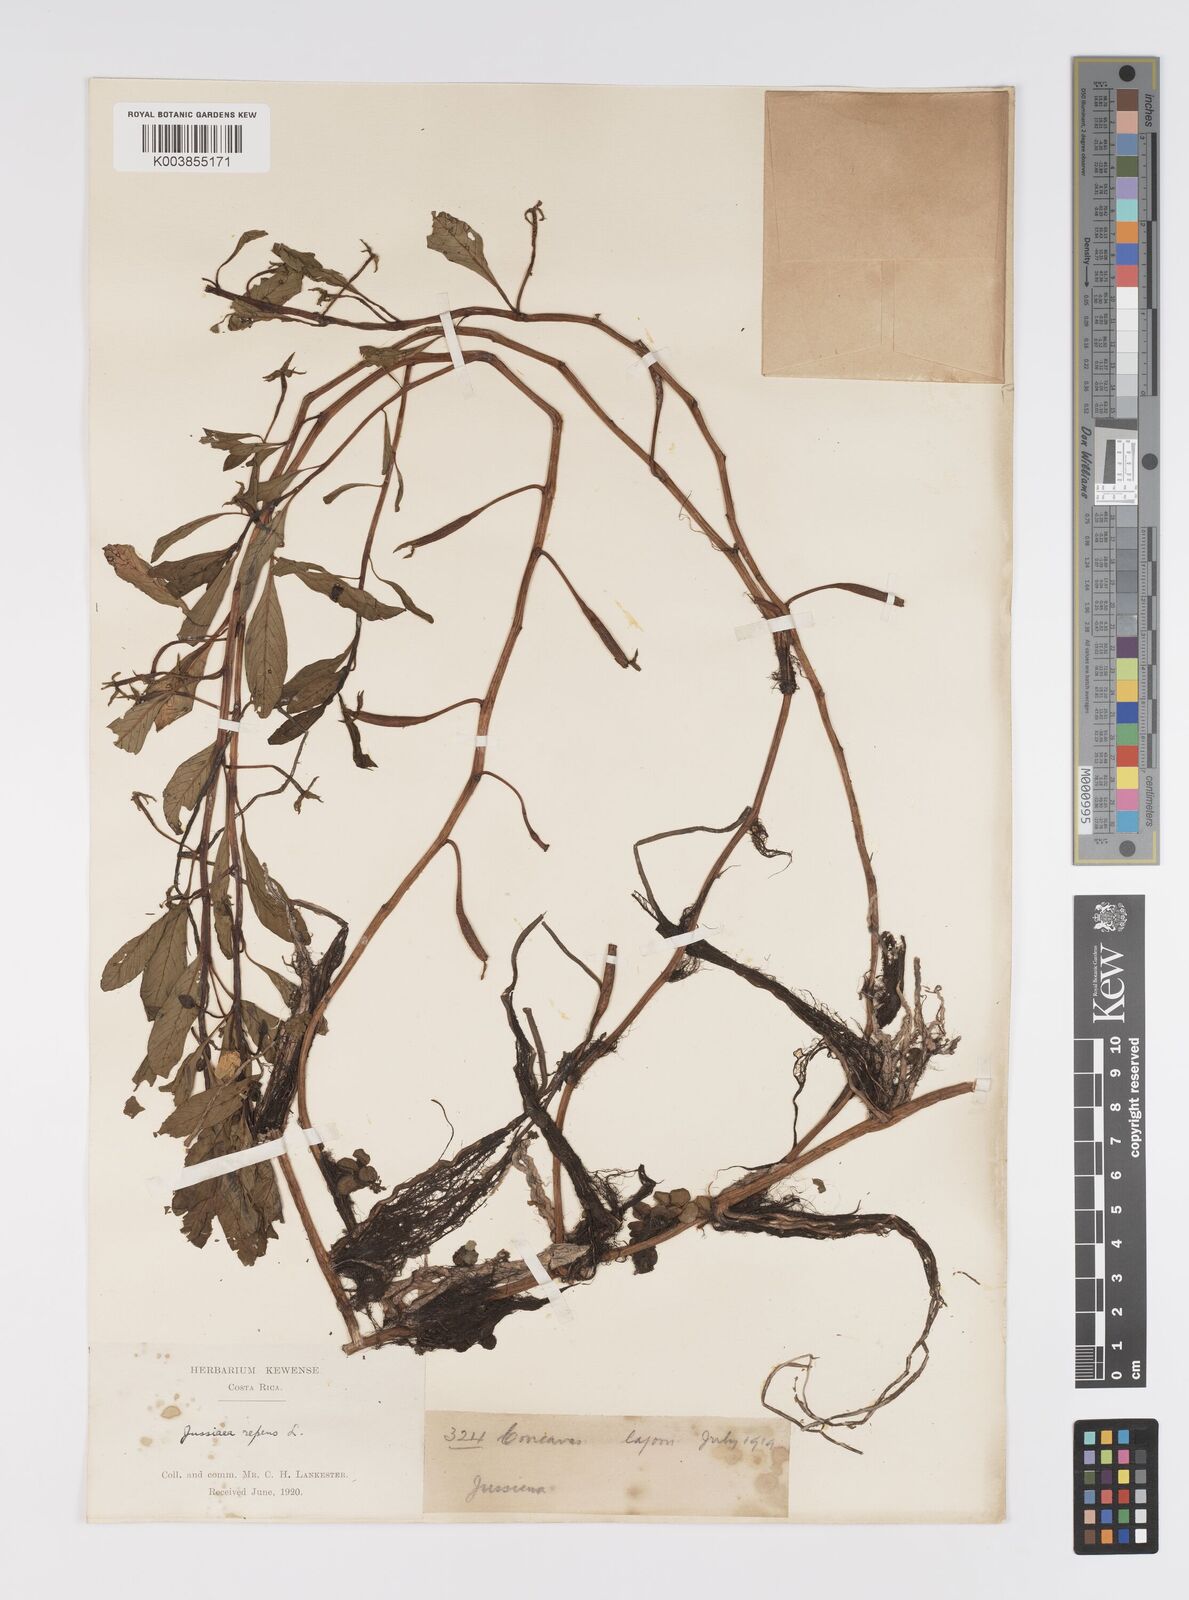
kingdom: Plantae
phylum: Tracheophyta
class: Magnoliopsida
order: Myrtales
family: Onagraceae
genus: Ludwigia
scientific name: Ludwigia adscendens
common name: Creeping water primrose
